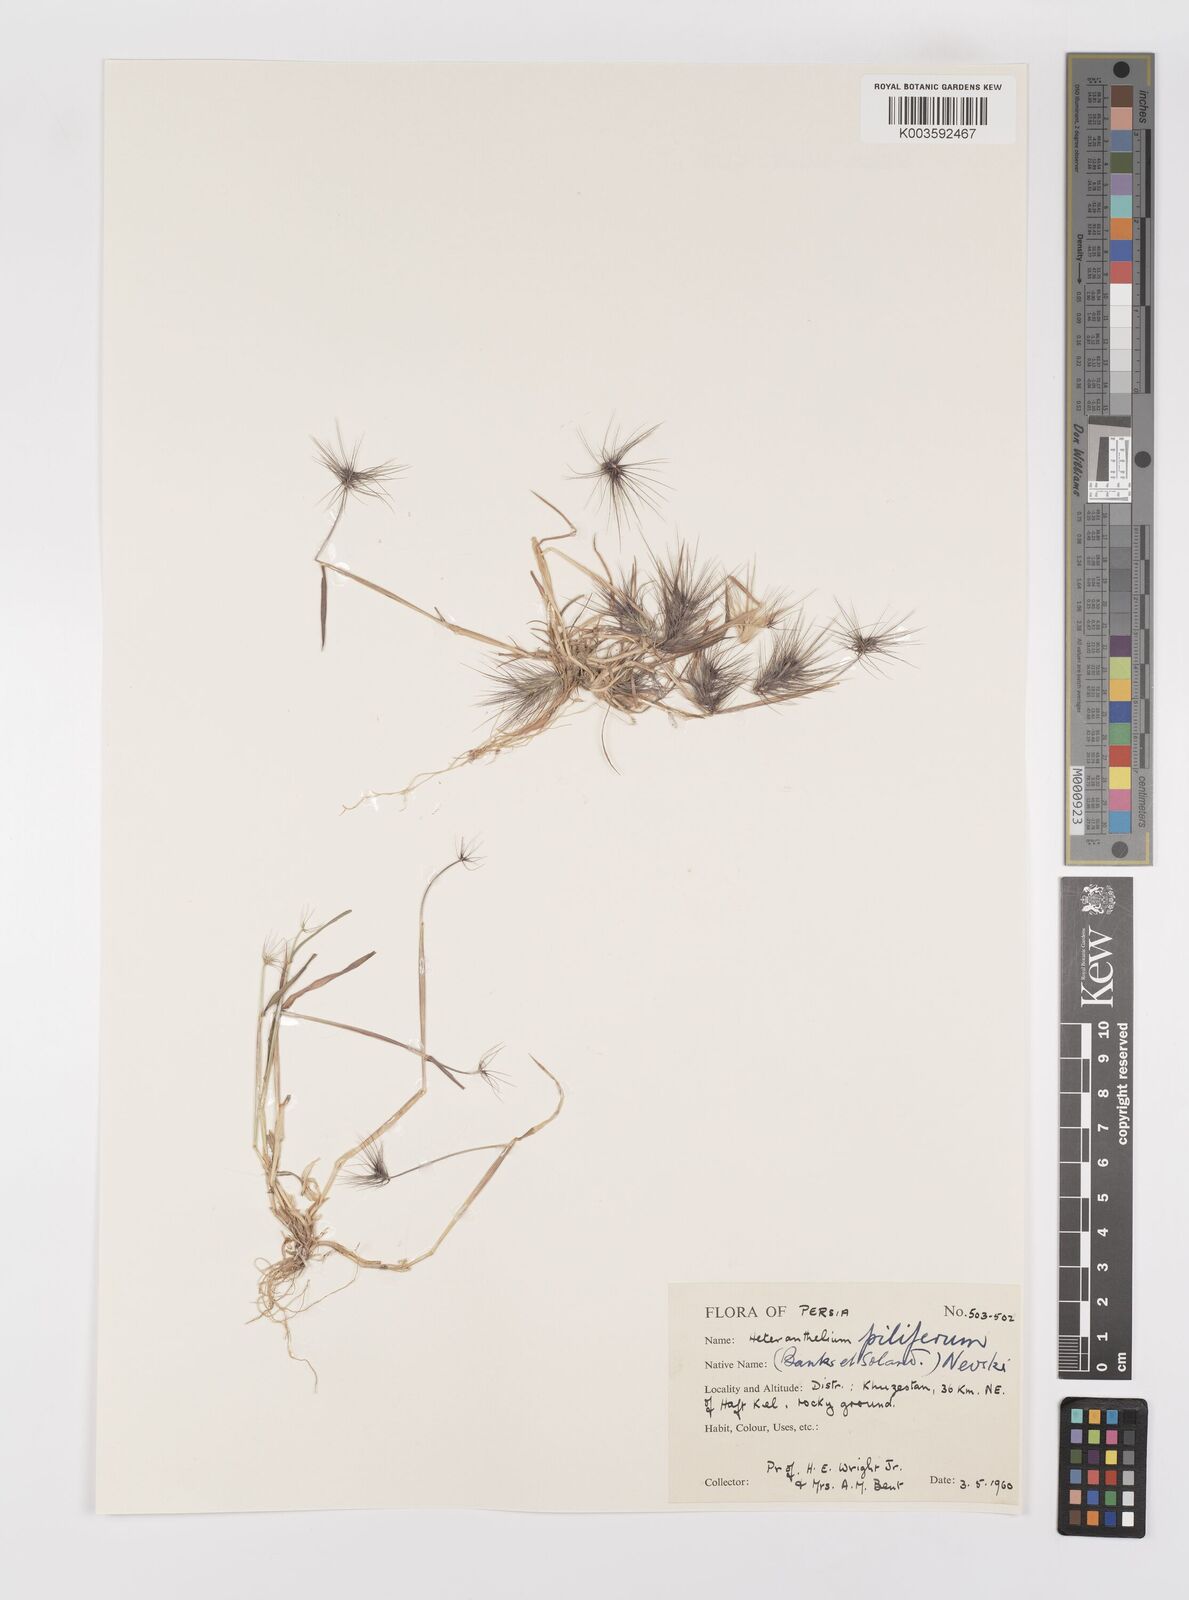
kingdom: Plantae
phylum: Tracheophyta
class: Liliopsida
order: Poales
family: Poaceae
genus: Heteranthelium
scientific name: Heteranthelium piliferum
